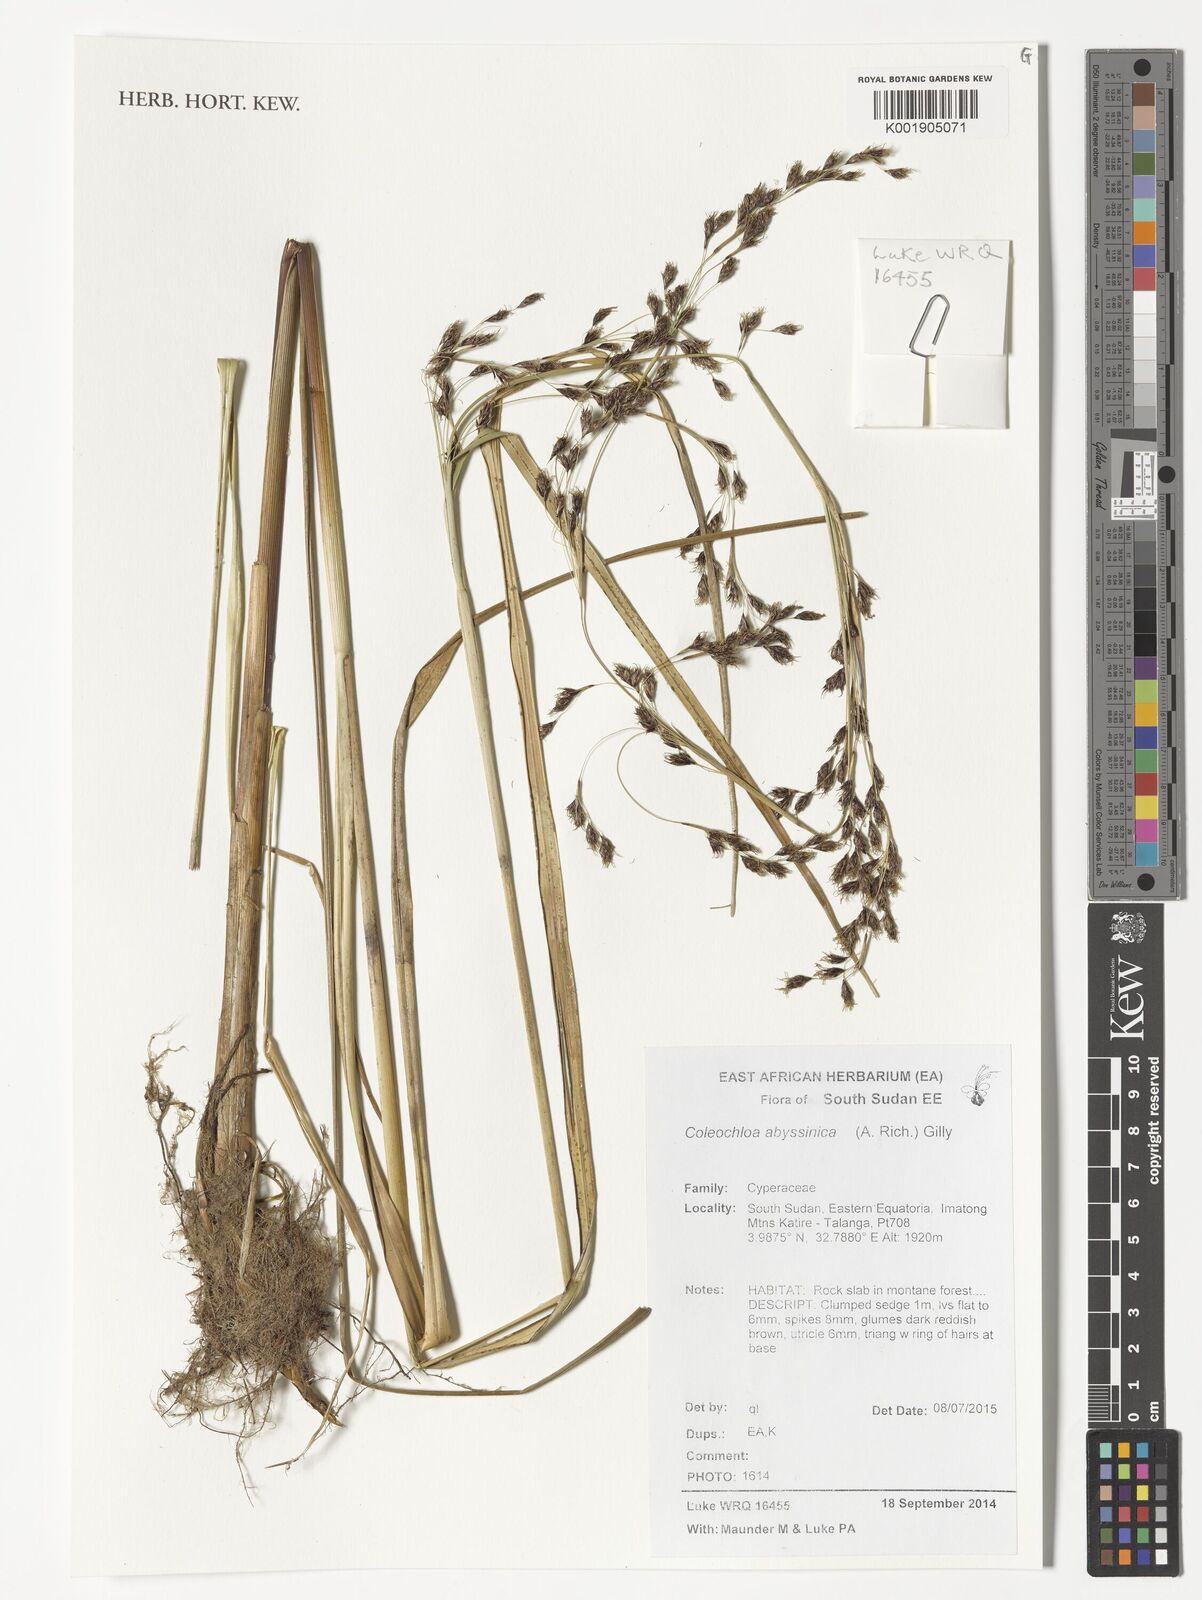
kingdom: Plantae
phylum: Tracheophyta
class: Liliopsida
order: Poales
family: Cyperaceae
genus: Coleochloa
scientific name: Coleochloa abyssinica
